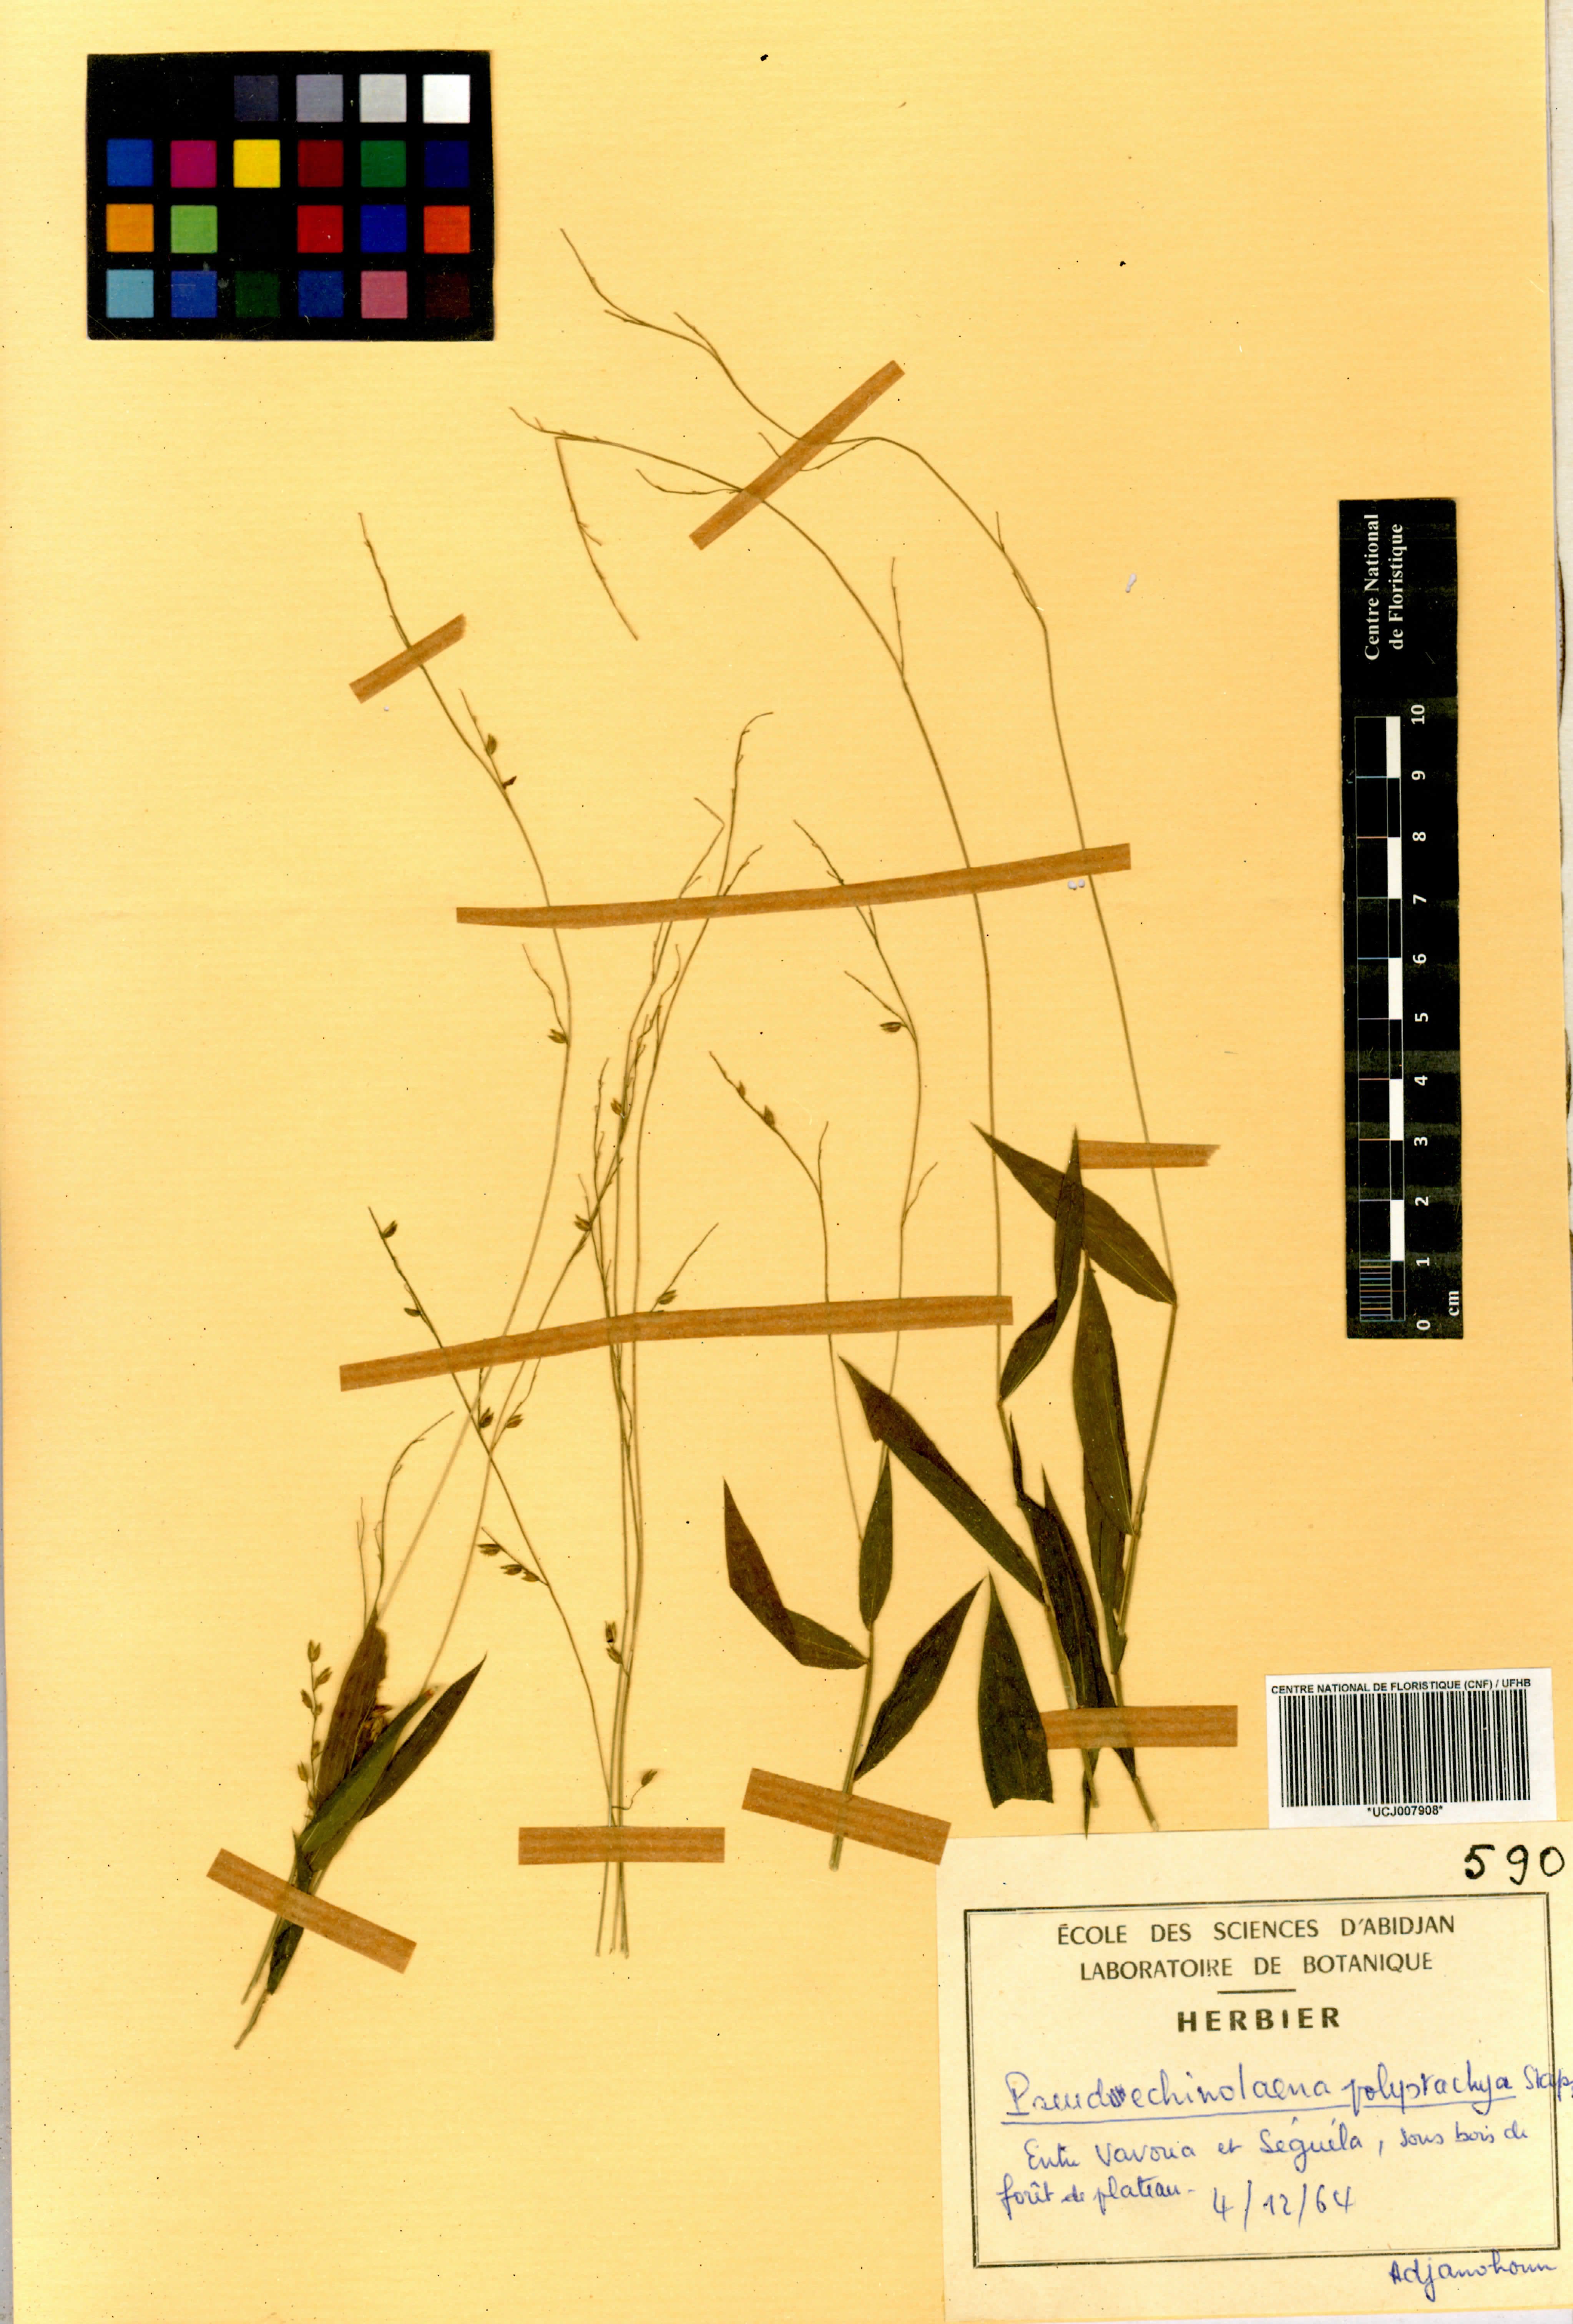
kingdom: Plantae
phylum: Tracheophyta
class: Liliopsida
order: Poales
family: Poaceae
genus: Pseudechinolaena
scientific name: Pseudechinolaena polystachya
